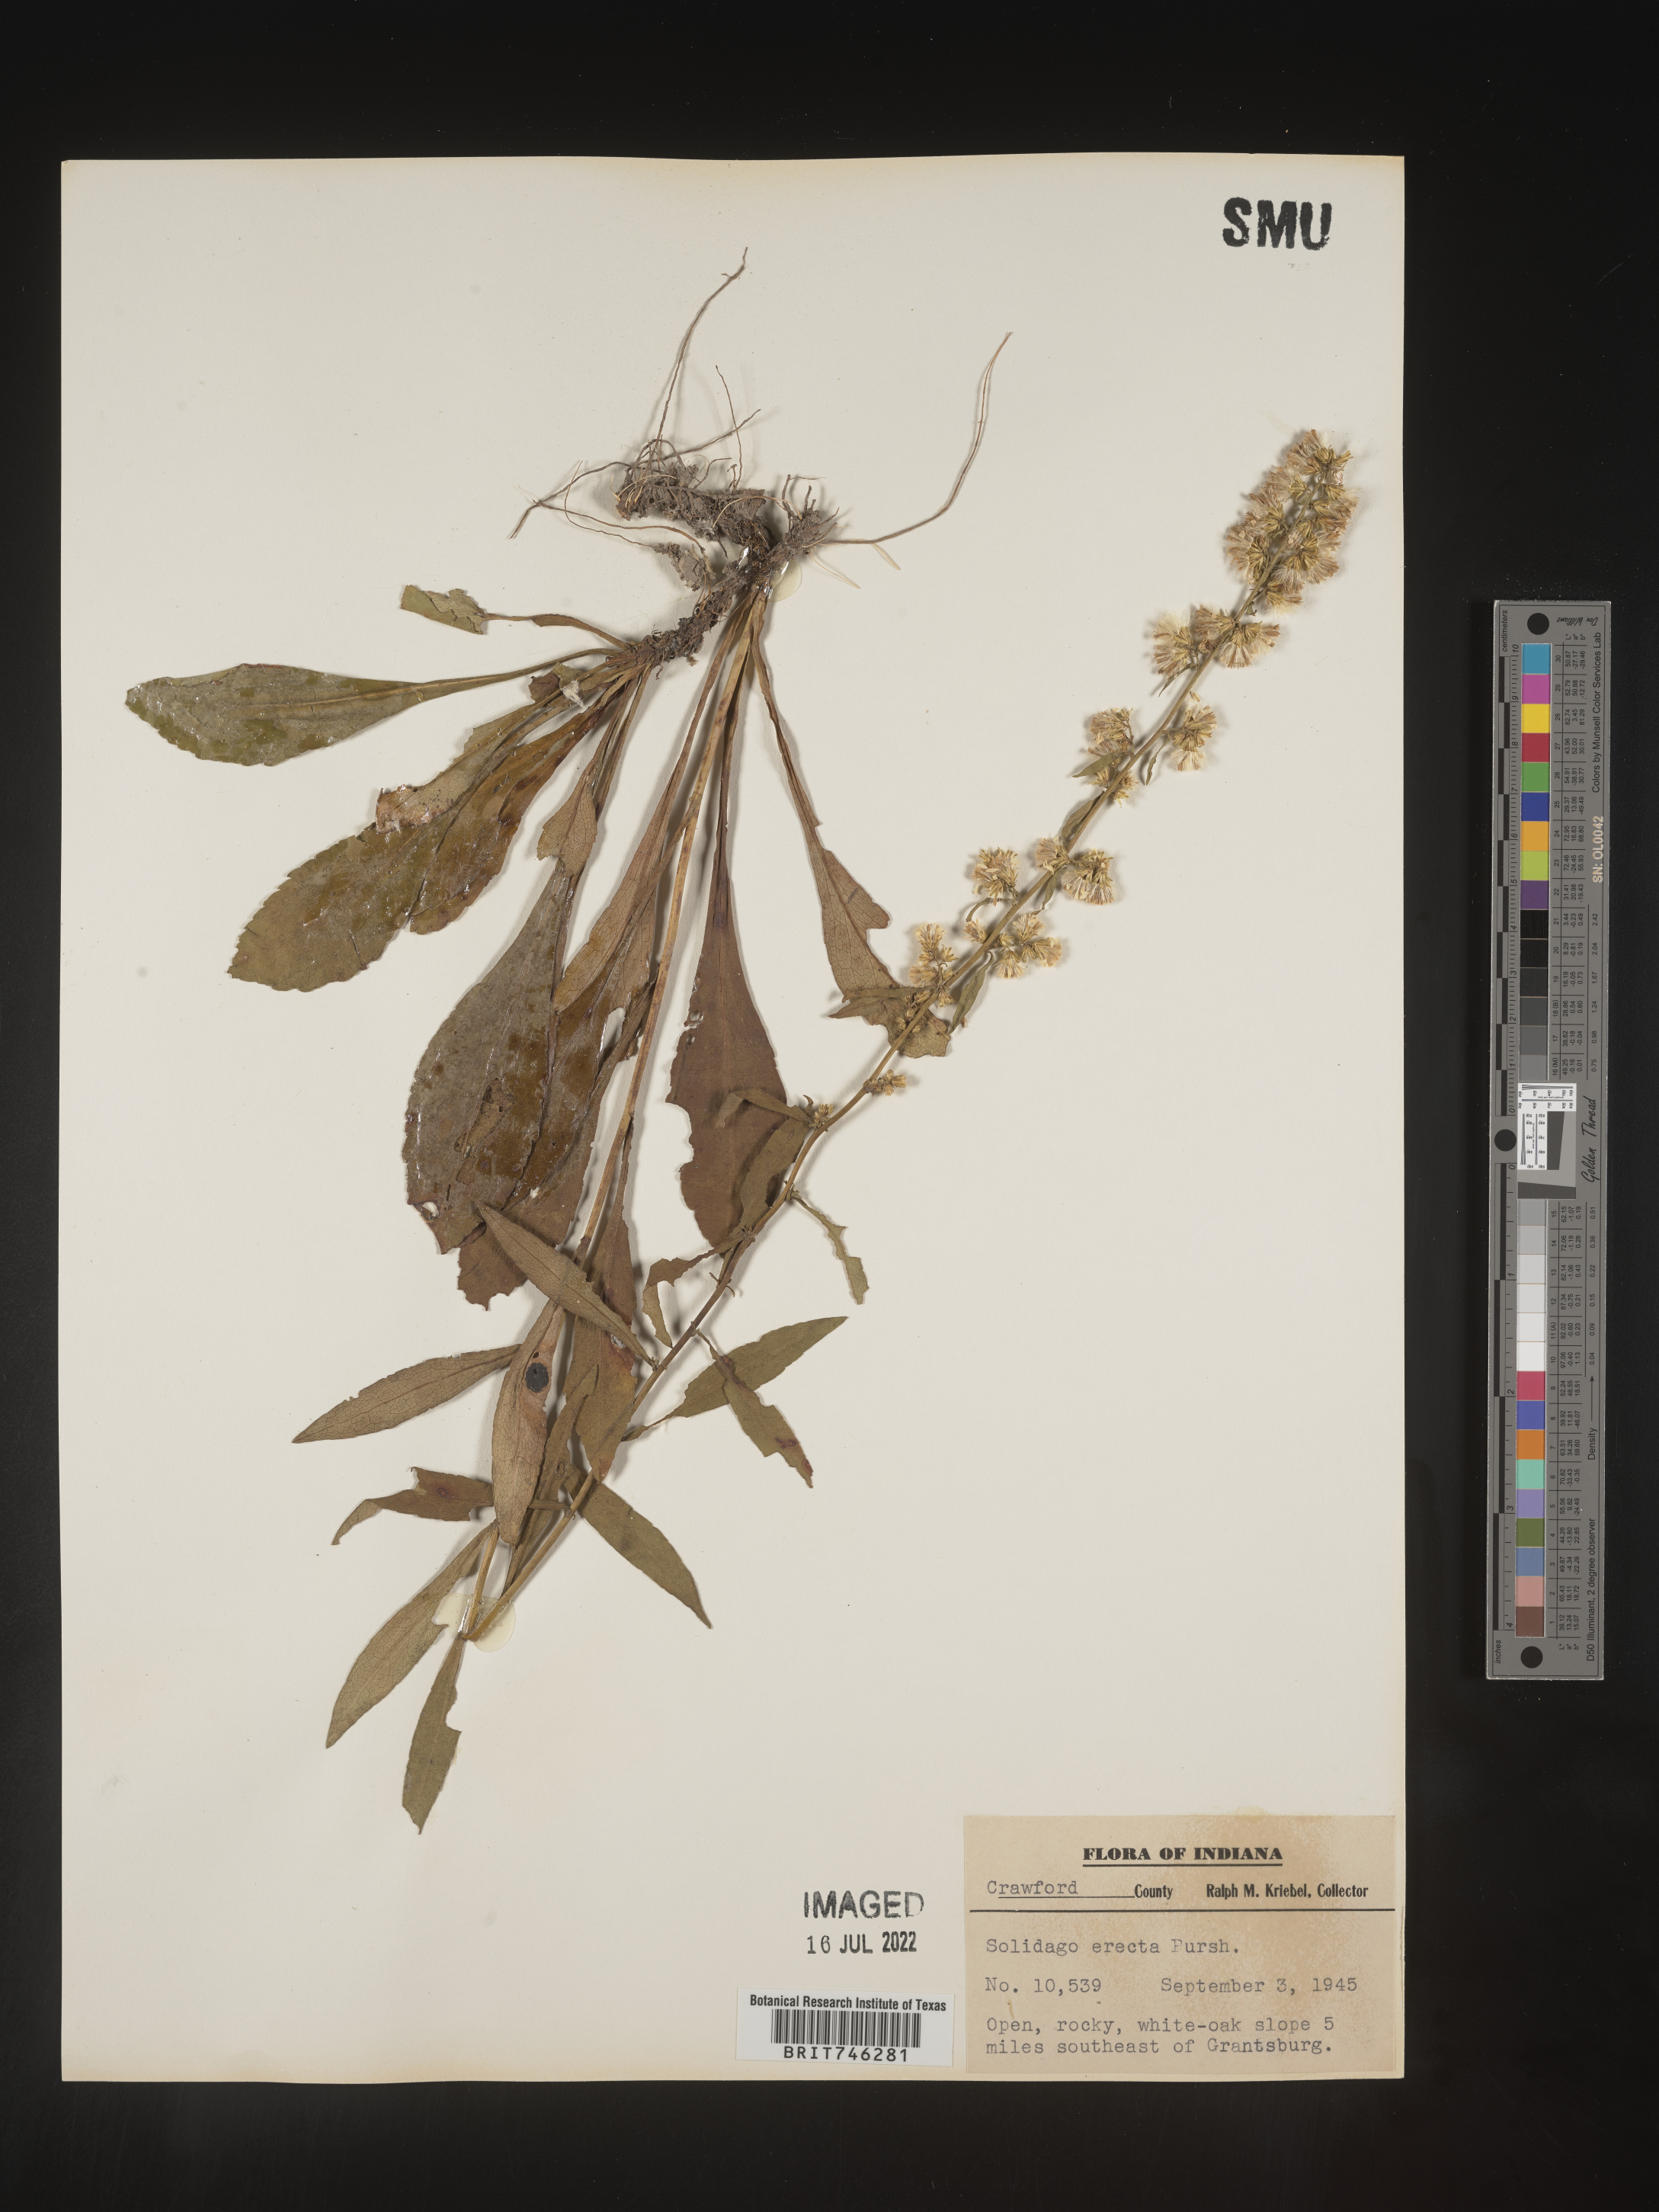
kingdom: Plantae
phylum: Tracheophyta
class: Magnoliopsida
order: Asterales
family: Asteraceae
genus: Solidago
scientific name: Solidago erecta
